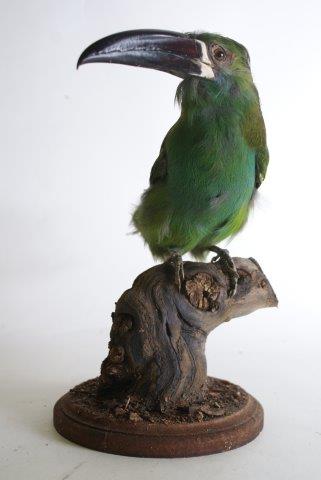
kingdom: Animalia
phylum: Chordata
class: Aves
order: Piciformes
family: Ramphastidae
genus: Aulacorhynchus
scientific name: Aulacorhynchus derbianus
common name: Chestnut-tipped toucanet
